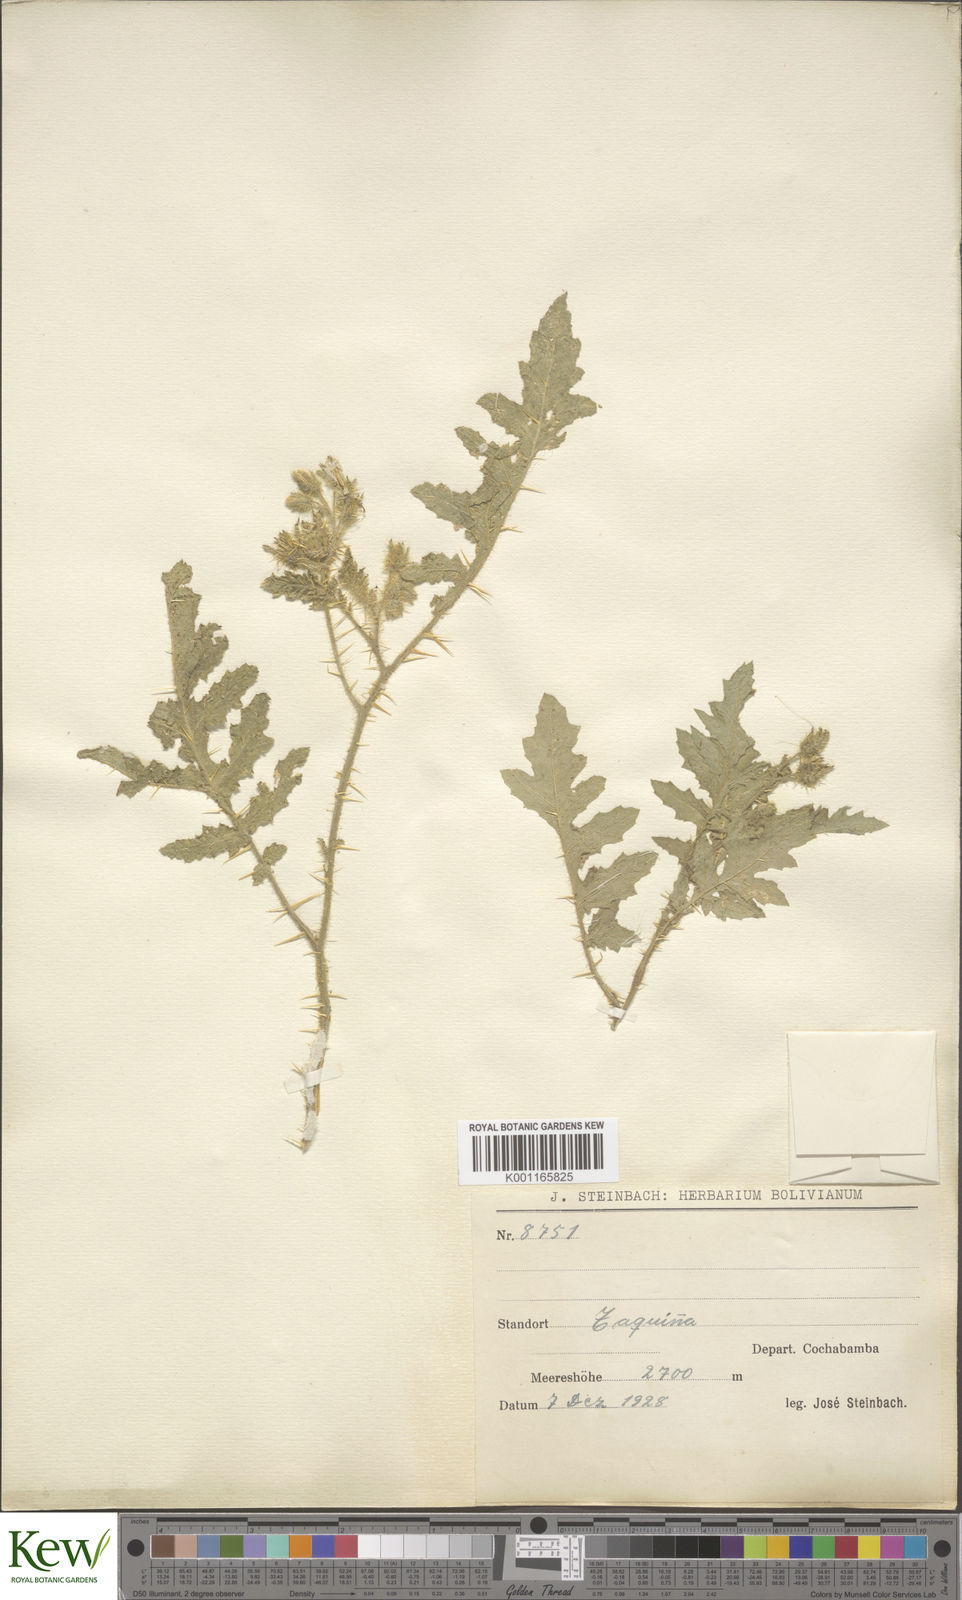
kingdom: Plantae
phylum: Tracheophyta
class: Magnoliopsida
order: Solanales
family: Solanaceae
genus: Solanum
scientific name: Solanum sisymbriifolium
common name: Red buffalo-bur
